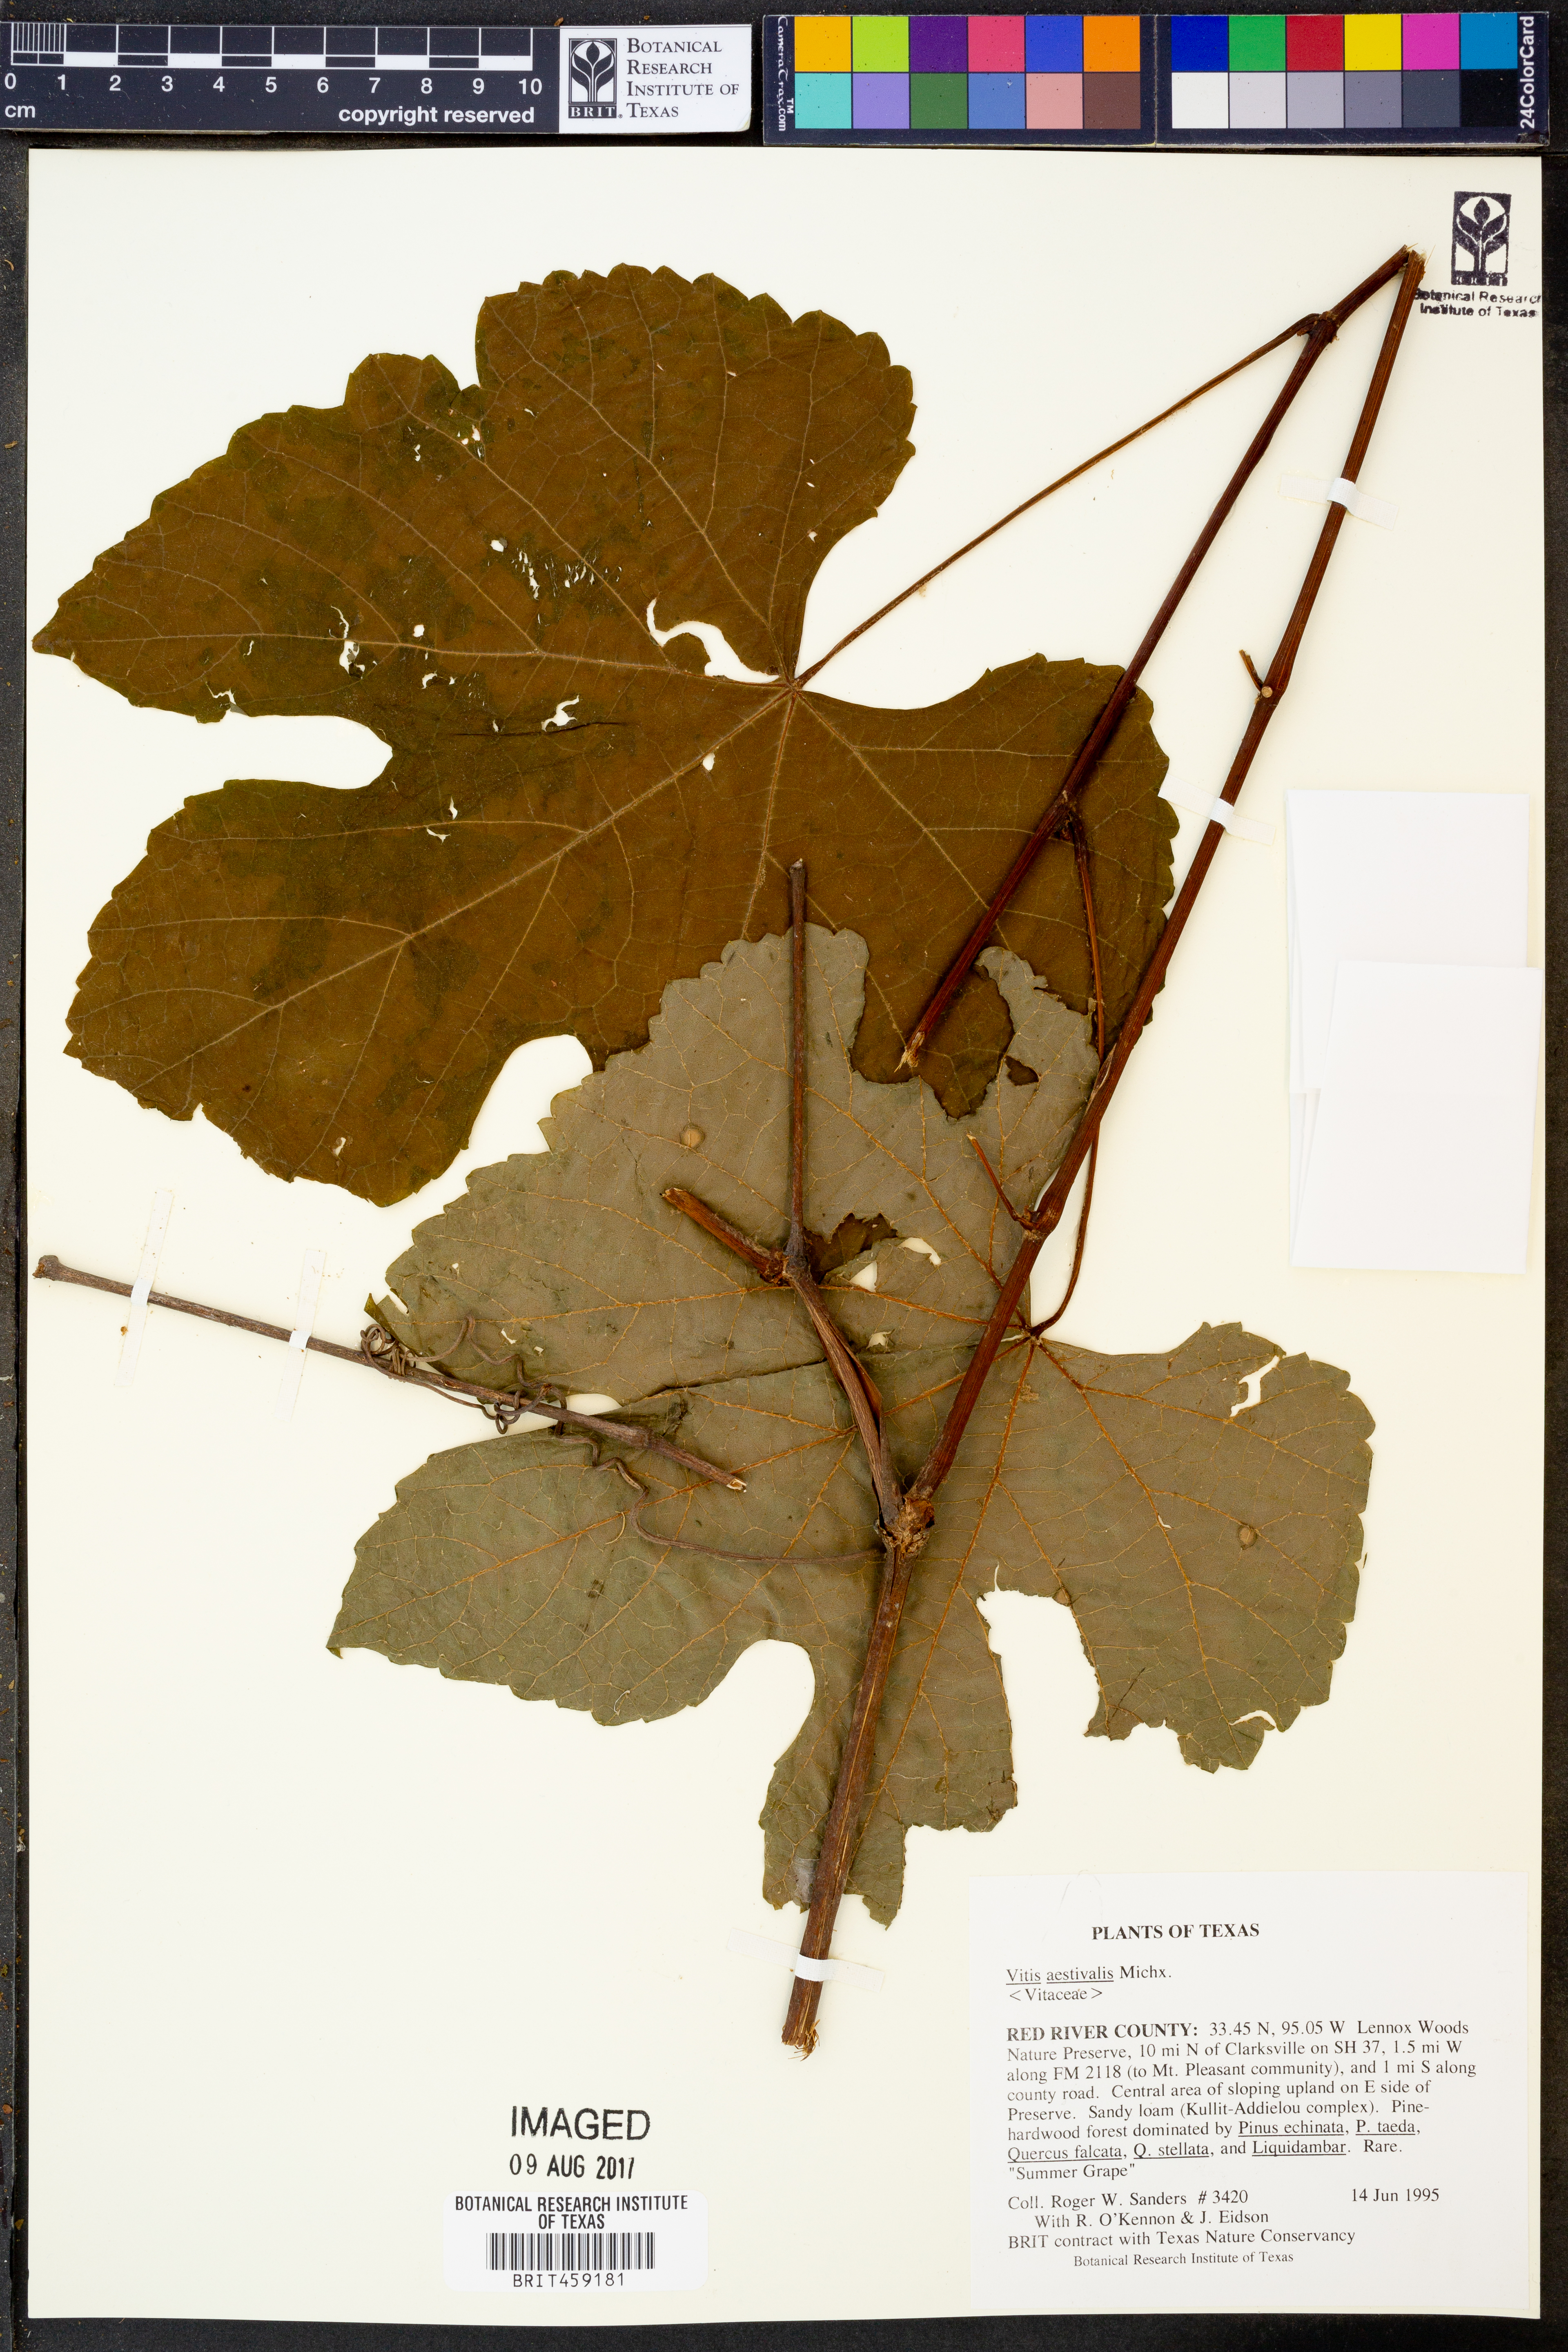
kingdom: Plantae
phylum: Tracheophyta
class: Magnoliopsida
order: Vitales
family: Vitaceae
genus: Vitis
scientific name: Vitis aestivalis
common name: Pigeon grape
